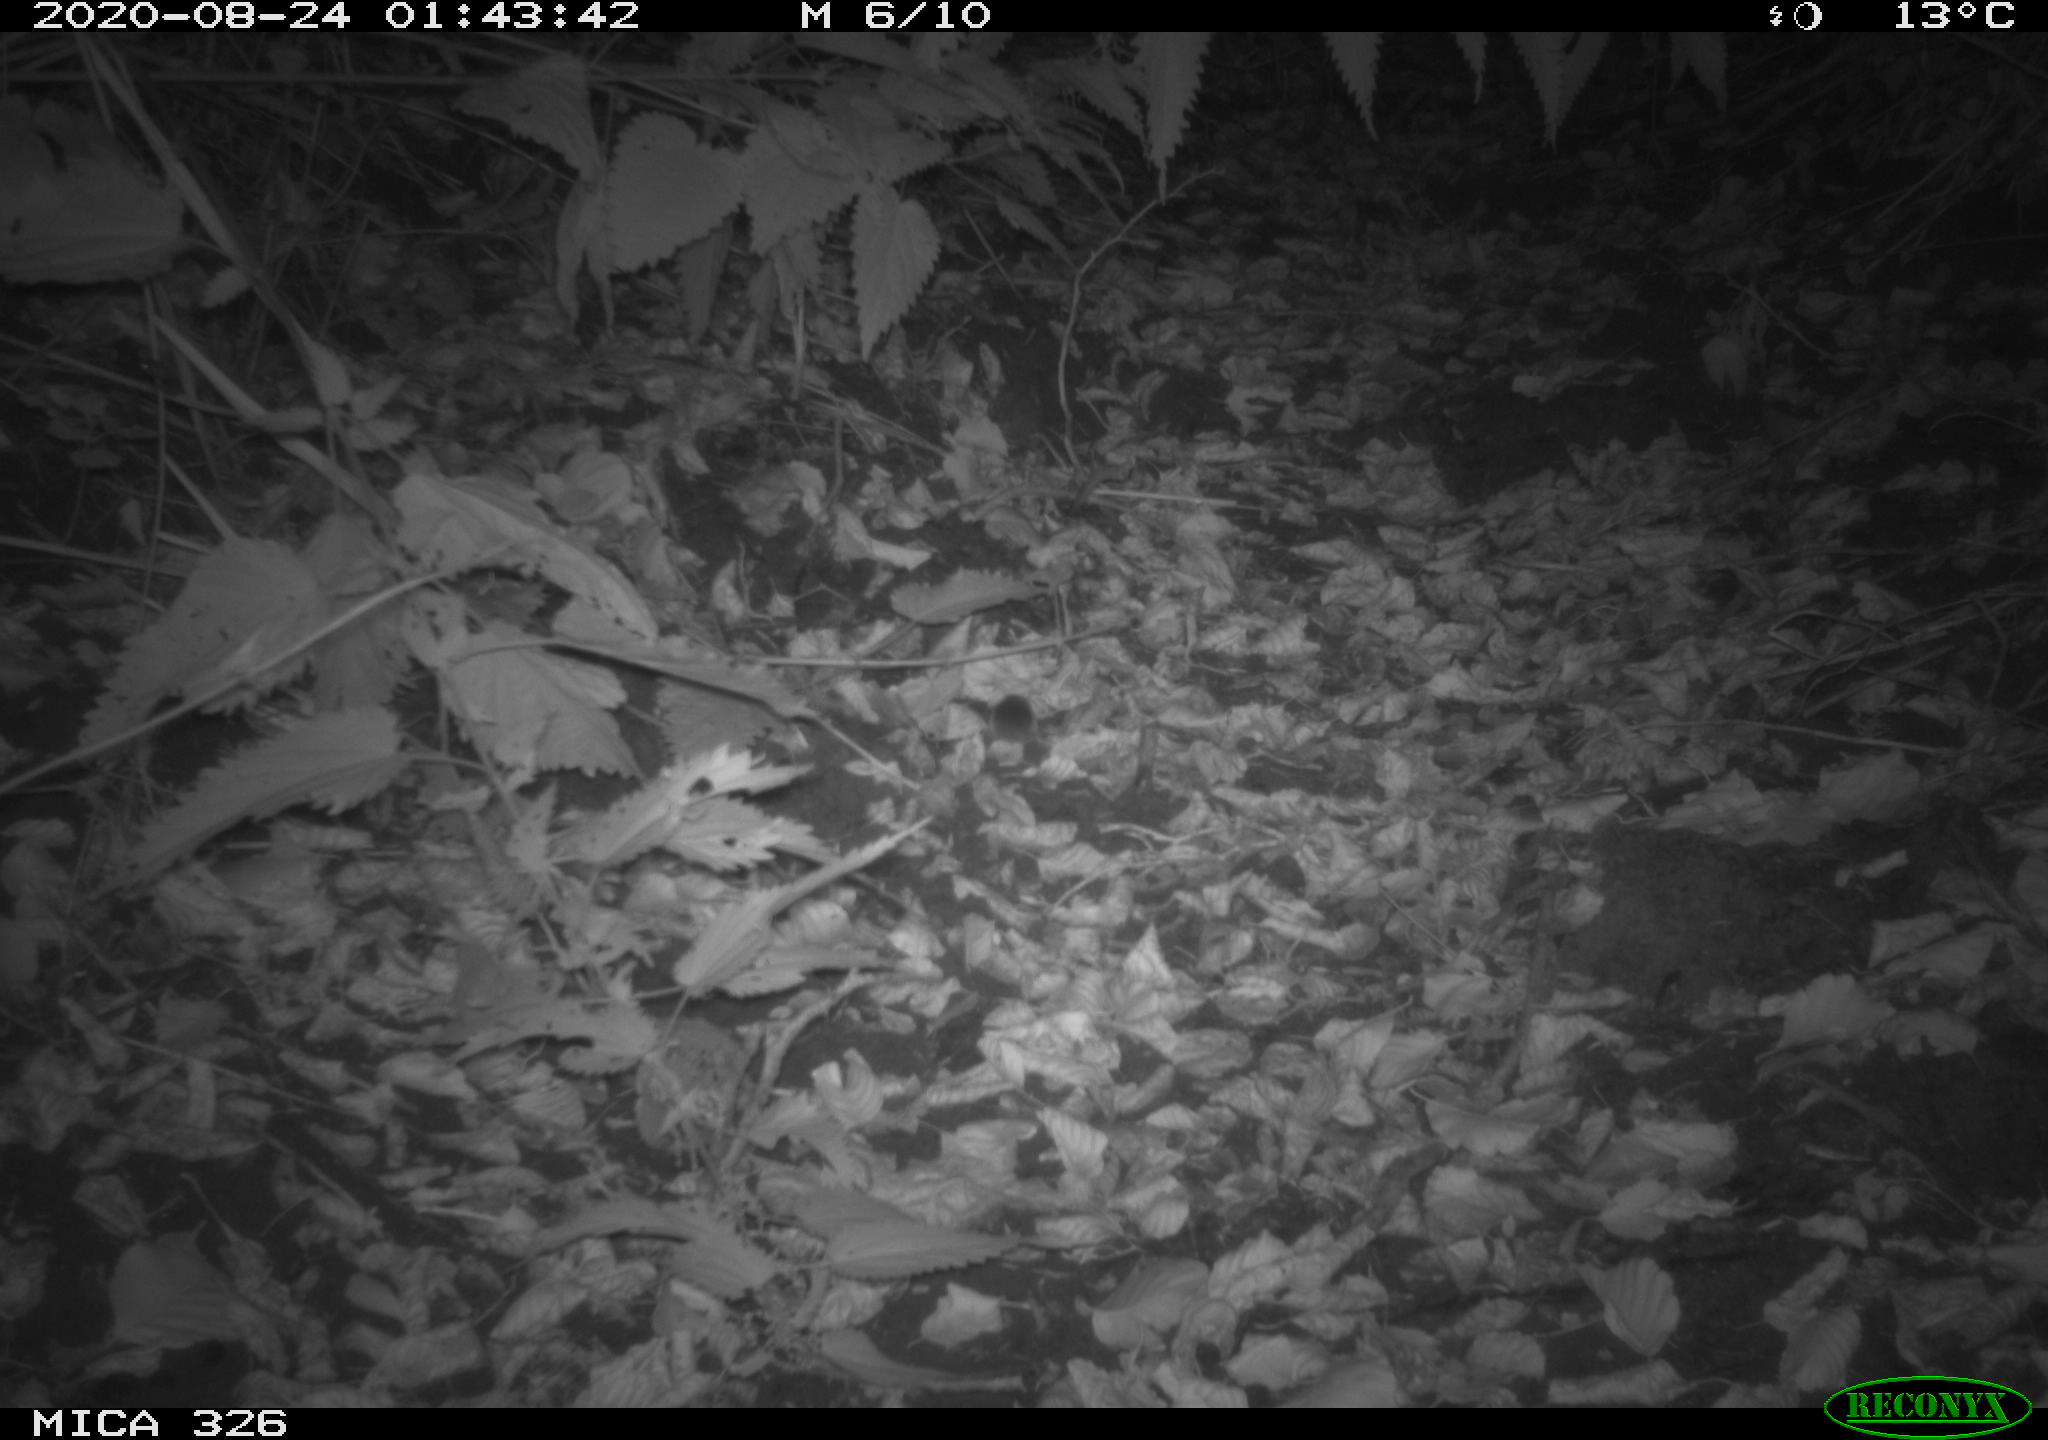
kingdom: Animalia
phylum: Chordata
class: Mammalia
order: Rodentia
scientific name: Rodentia
